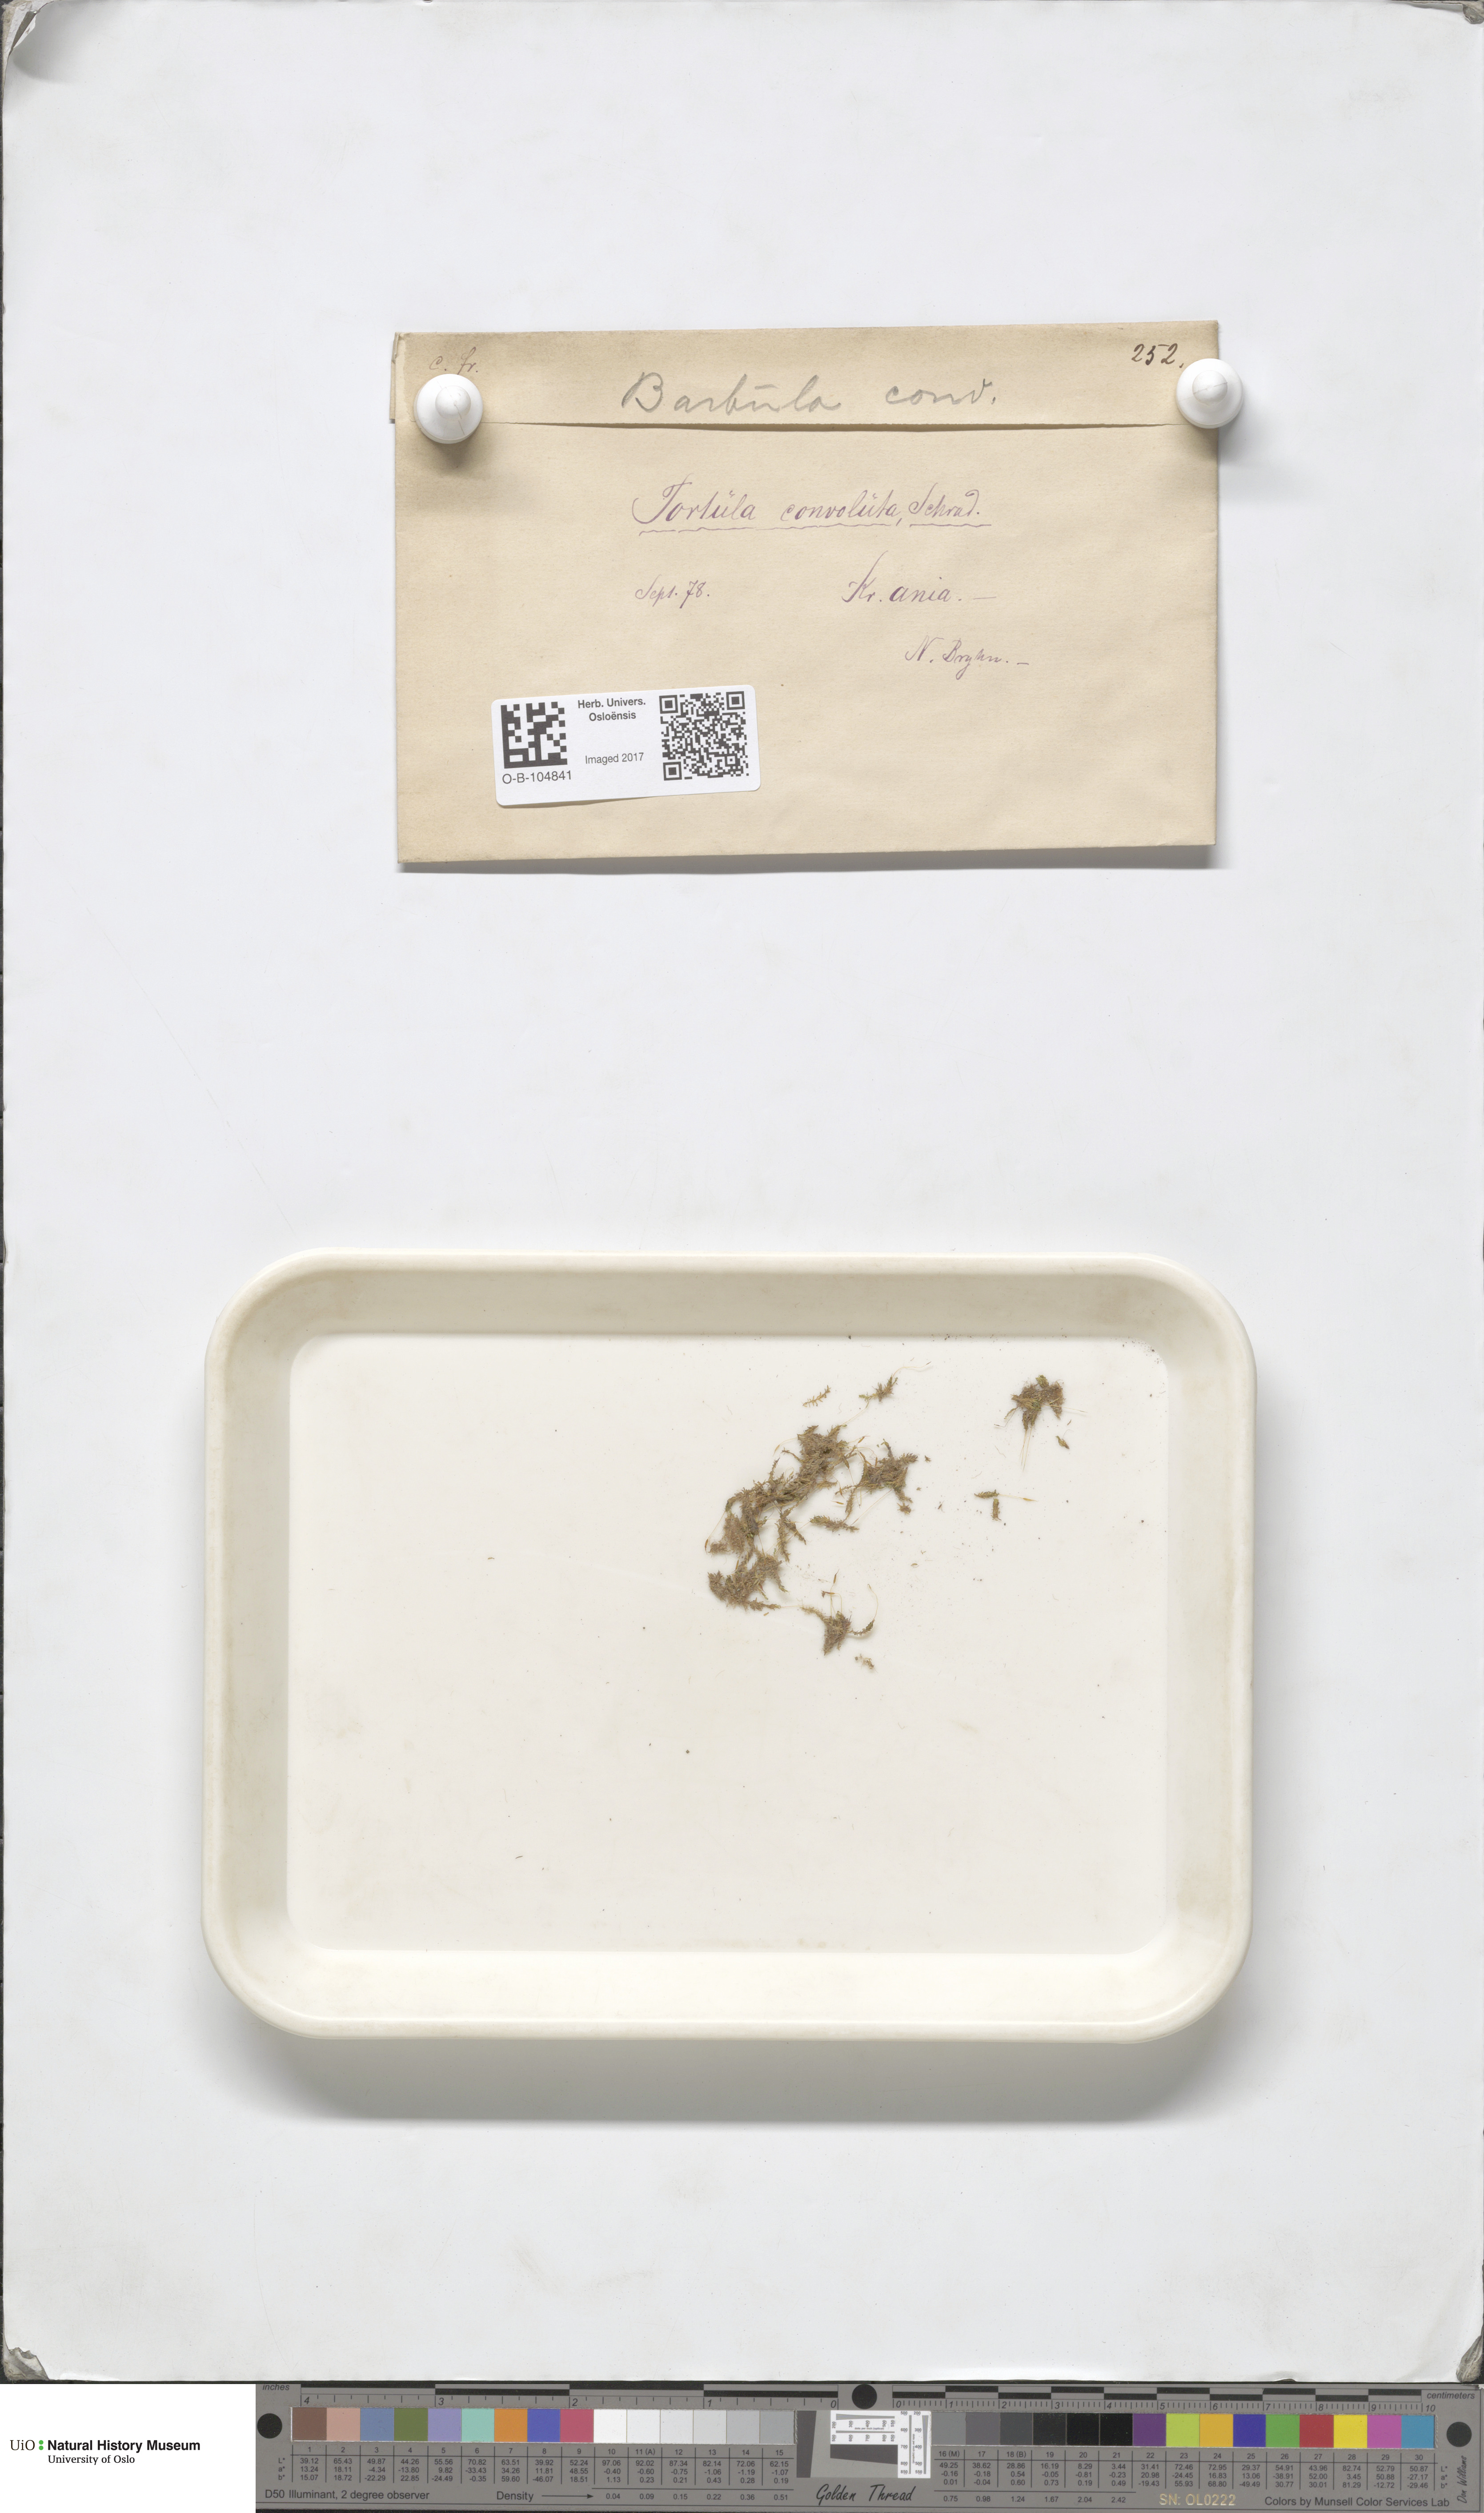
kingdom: Plantae
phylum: Bryophyta
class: Bryopsida
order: Pottiales
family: Pottiaceae
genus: Streblotrichum
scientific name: Streblotrichum convolutum
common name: Lesser bird's-claw beard-moss
